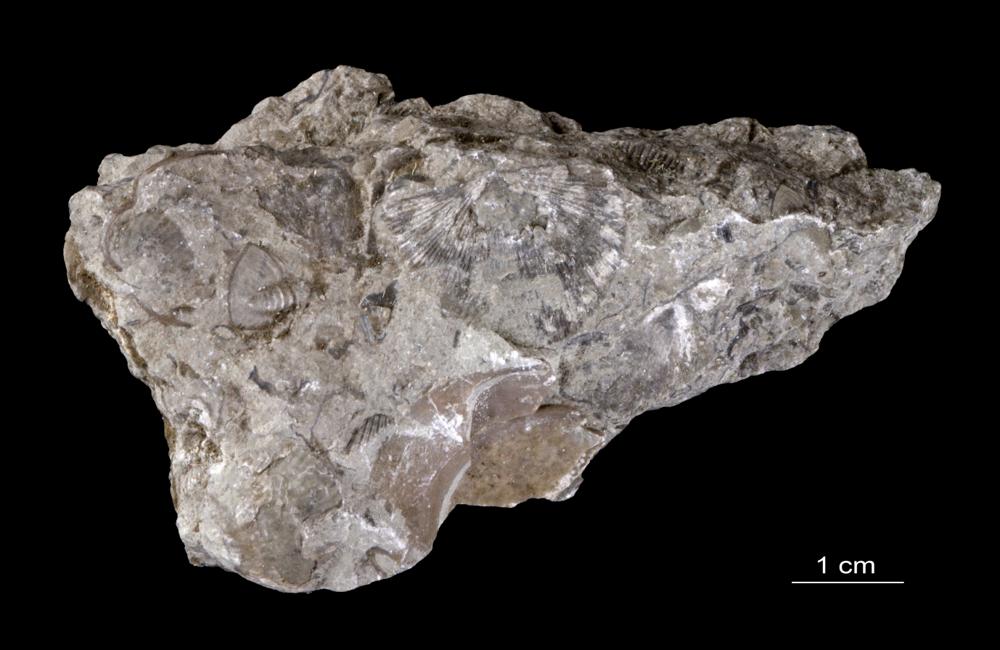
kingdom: Animalia
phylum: Brachiopoda
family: Strophomenidae
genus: Strophomena
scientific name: Strophomena
